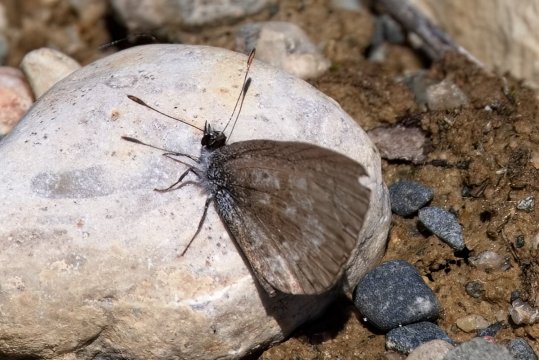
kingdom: Animalia
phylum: Arthropoda
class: Insecta
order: Lepidoptera
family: Lycaenidae
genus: Celastrina
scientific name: Celastrina lucia
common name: Northern Spring Azure
